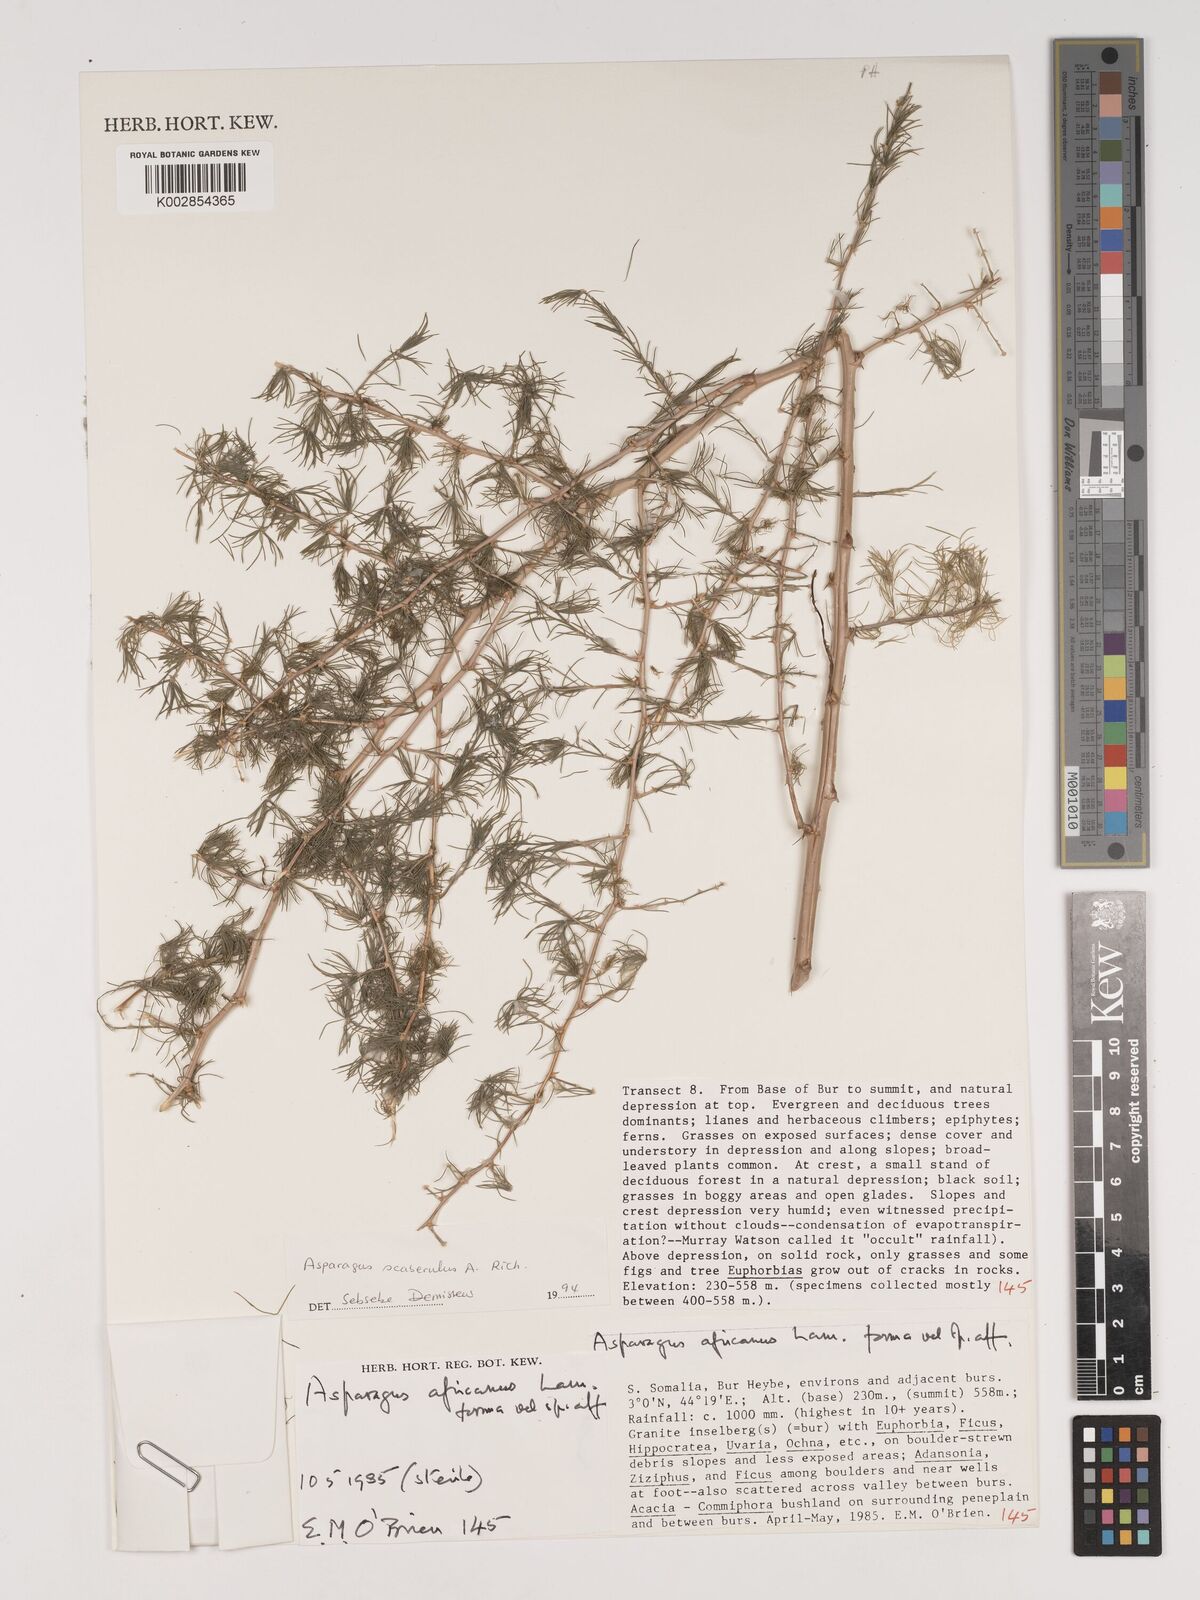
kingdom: Plantae
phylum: Tracheophyta
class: Liliopsida
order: Asparagales
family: Asparagaceae
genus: Asparagus
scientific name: Asparagus scaberulus
